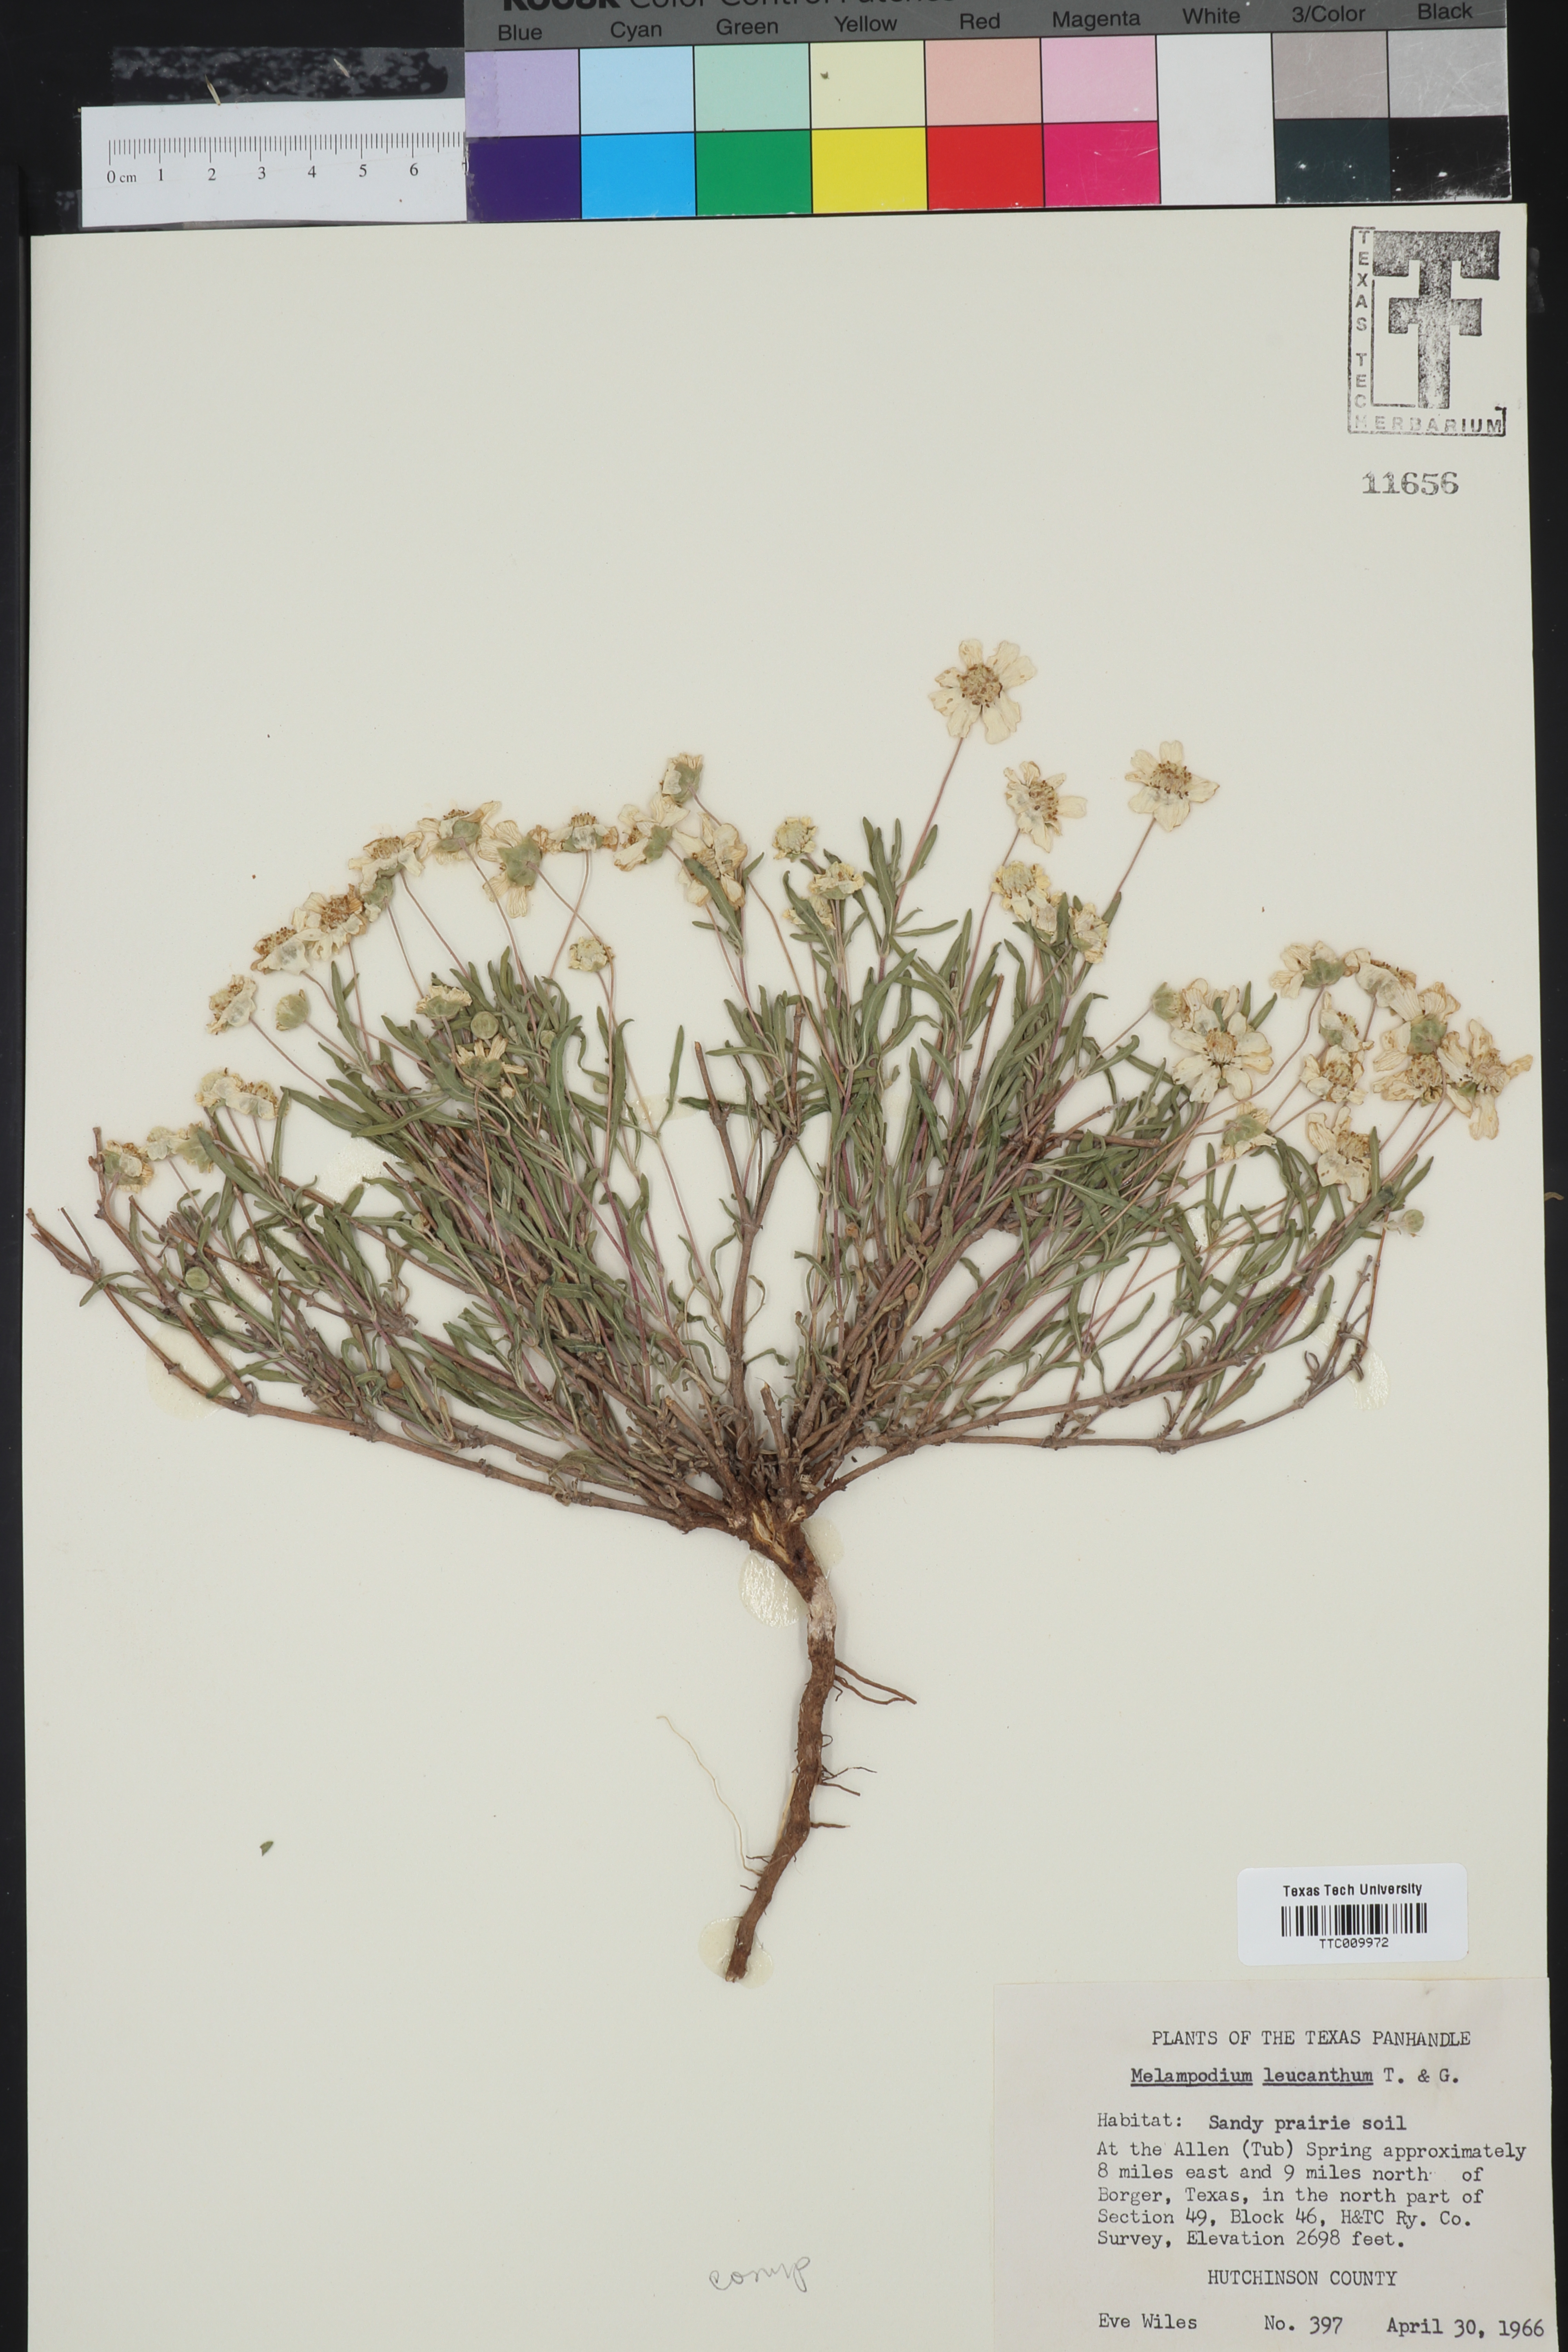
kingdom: Plantae
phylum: Tracheophyta
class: Magnoliopsida
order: Asterales
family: Asteraceae
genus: Melampodium
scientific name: Melampodium leucanthum
